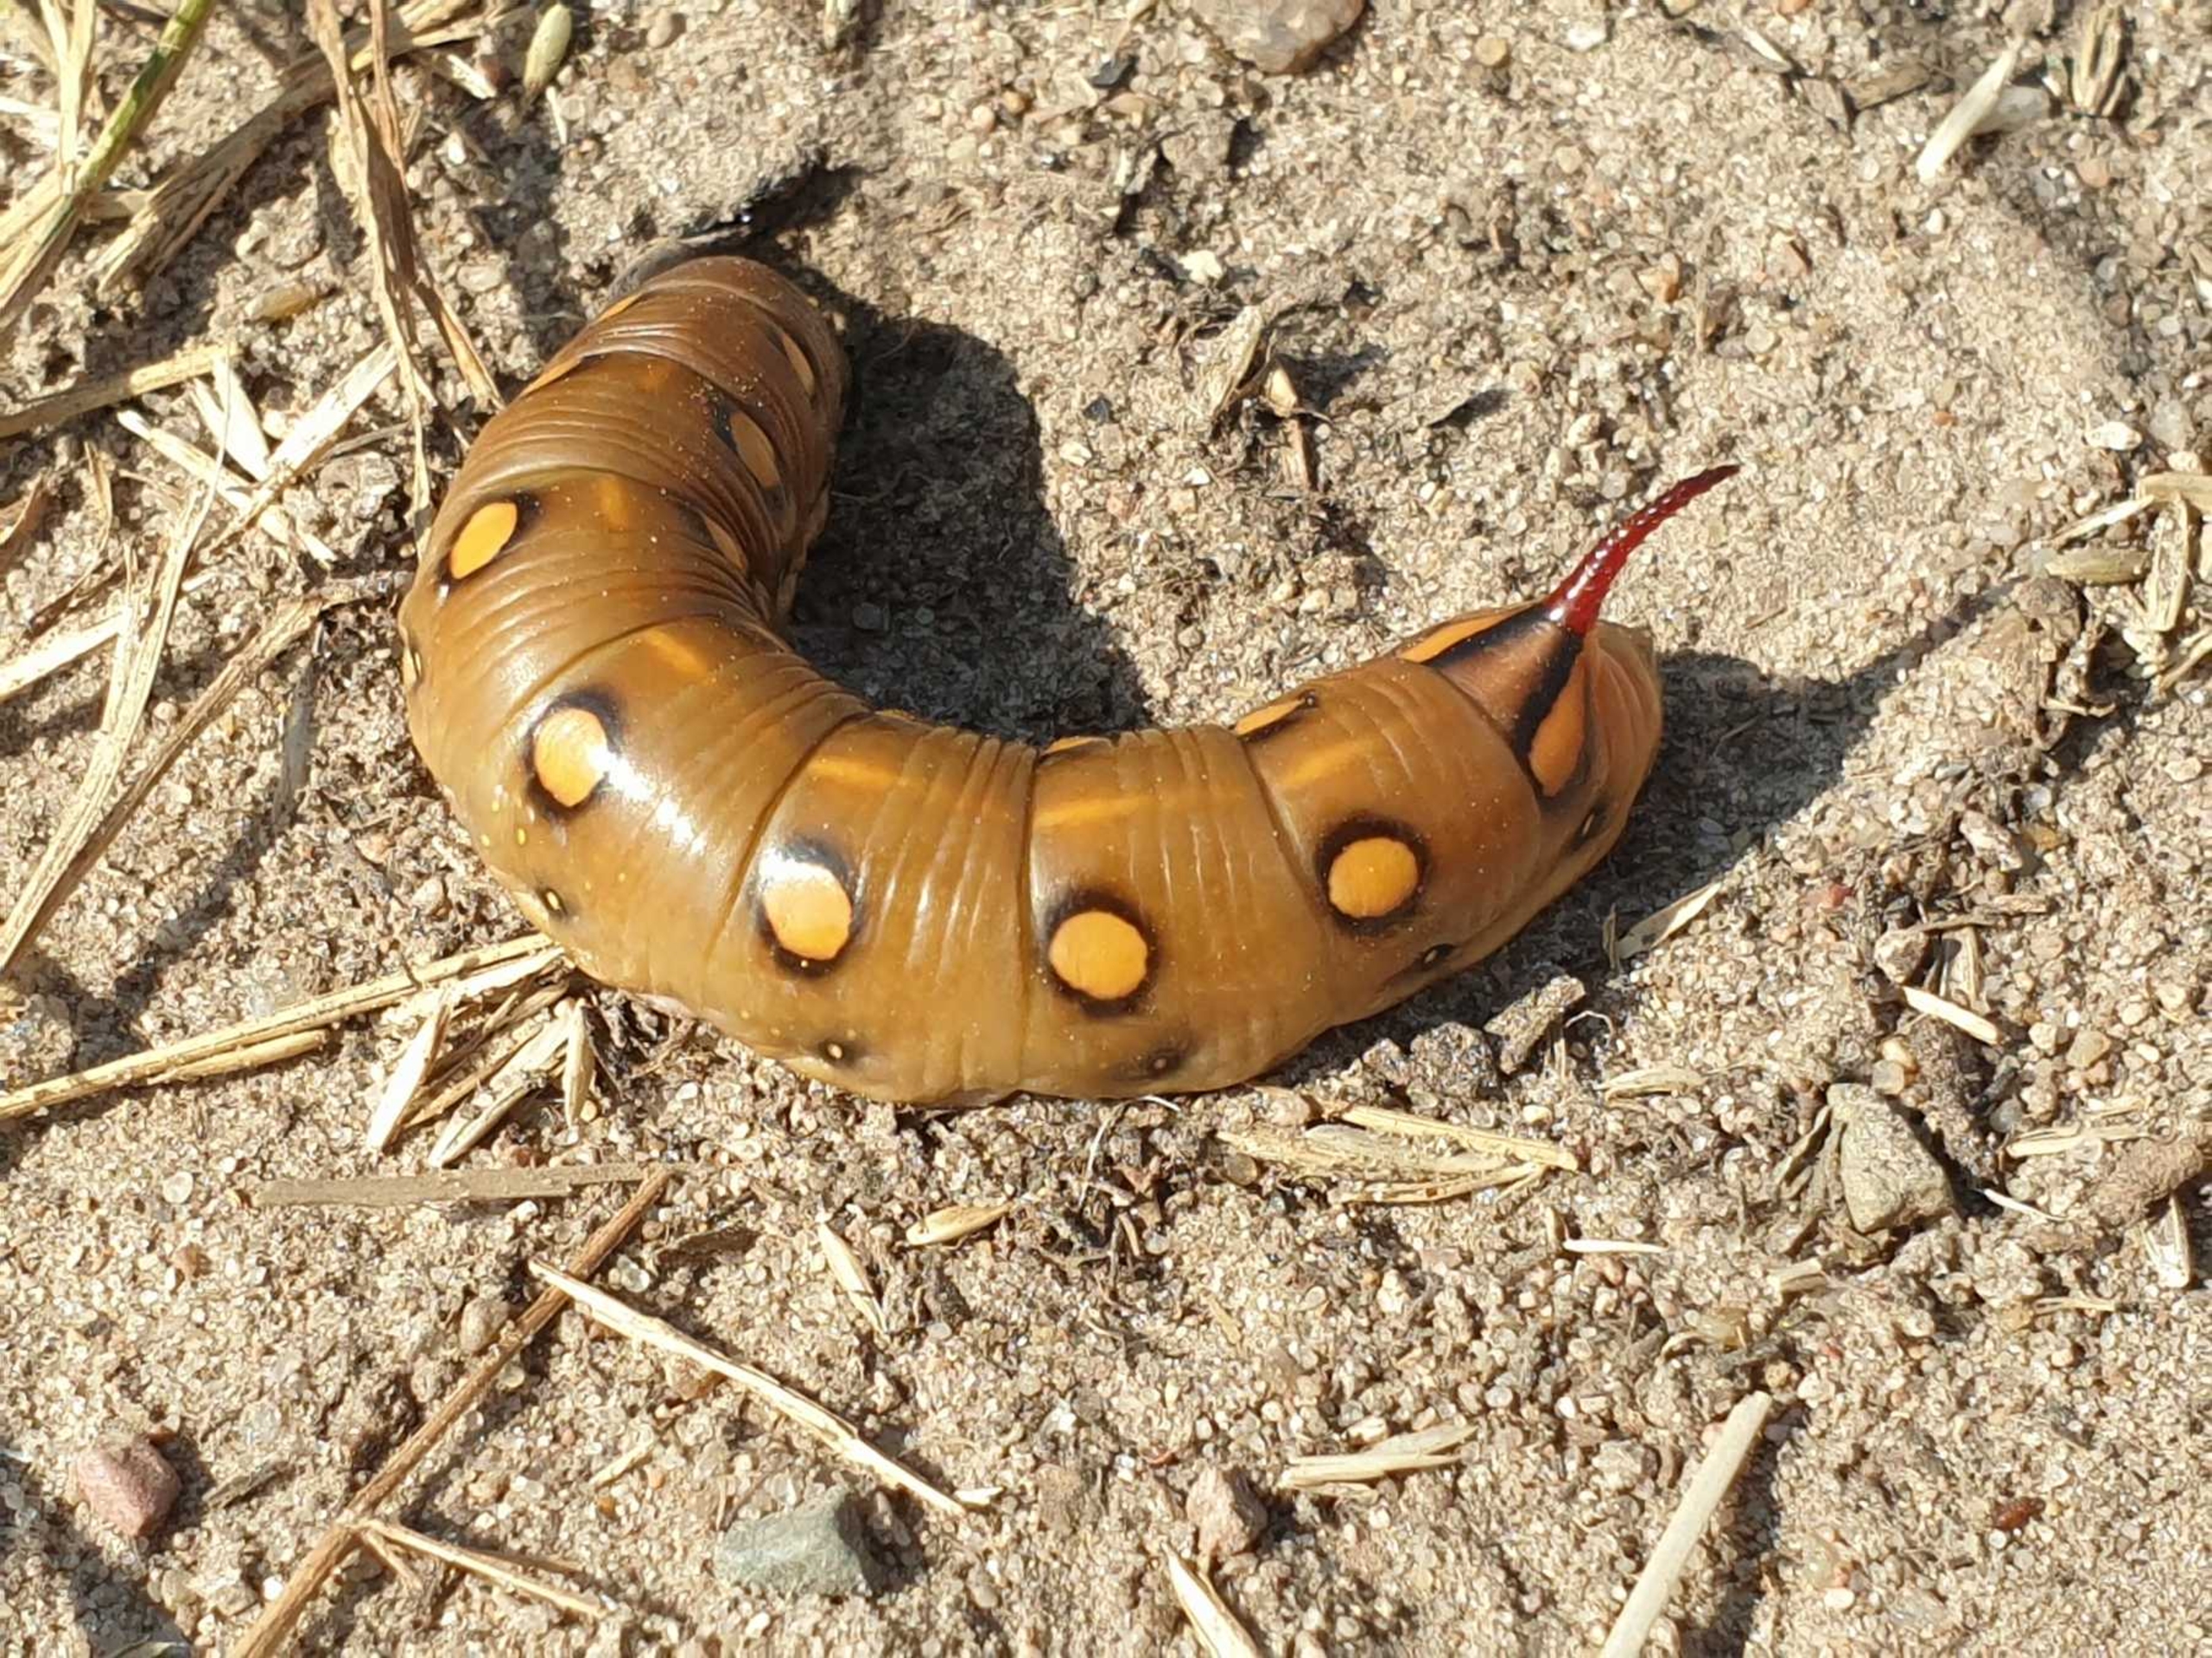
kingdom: Animalia
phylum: Arthropoda
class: Insecta
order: Lepidoptera
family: Sphingidae
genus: Hyles
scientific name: Hyles gallii
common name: Snerresværmer
